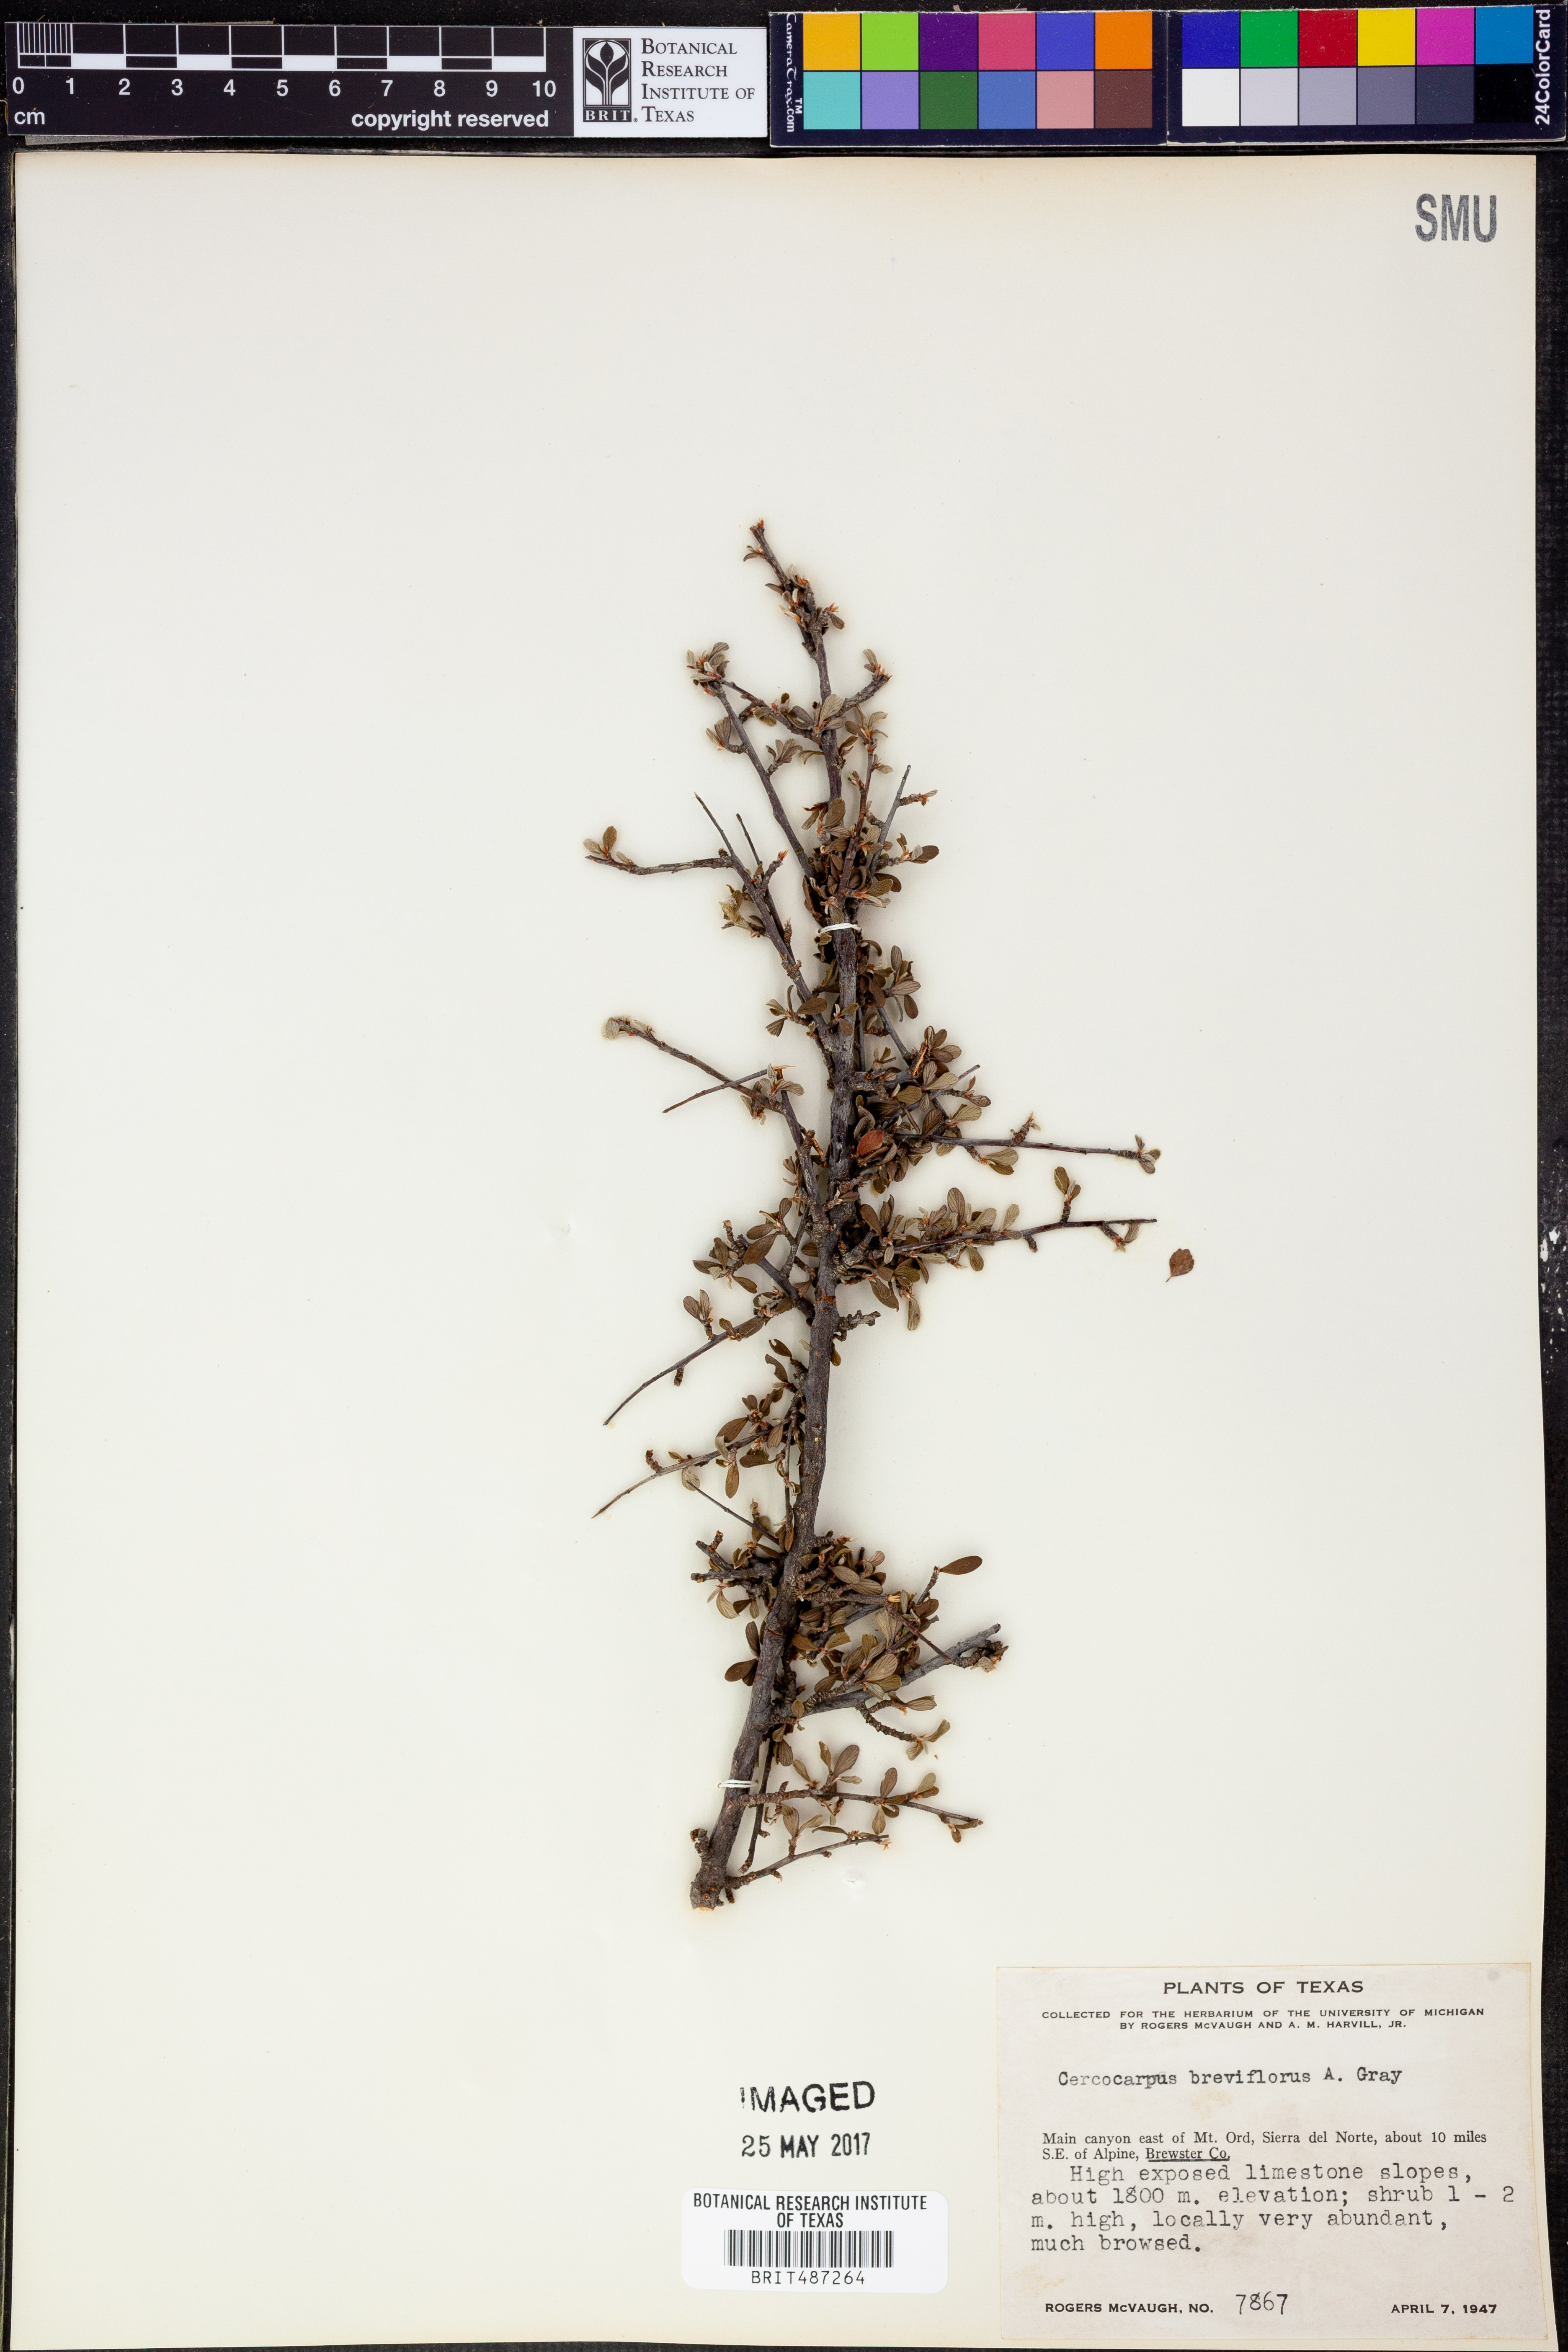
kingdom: Plantae
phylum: Tracheophyta
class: Magnoliopsida
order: Rosales
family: Rosaceae
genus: Cercocarpus
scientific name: Cercocarpus breviflorus
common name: Wright's mountain-mahogany
